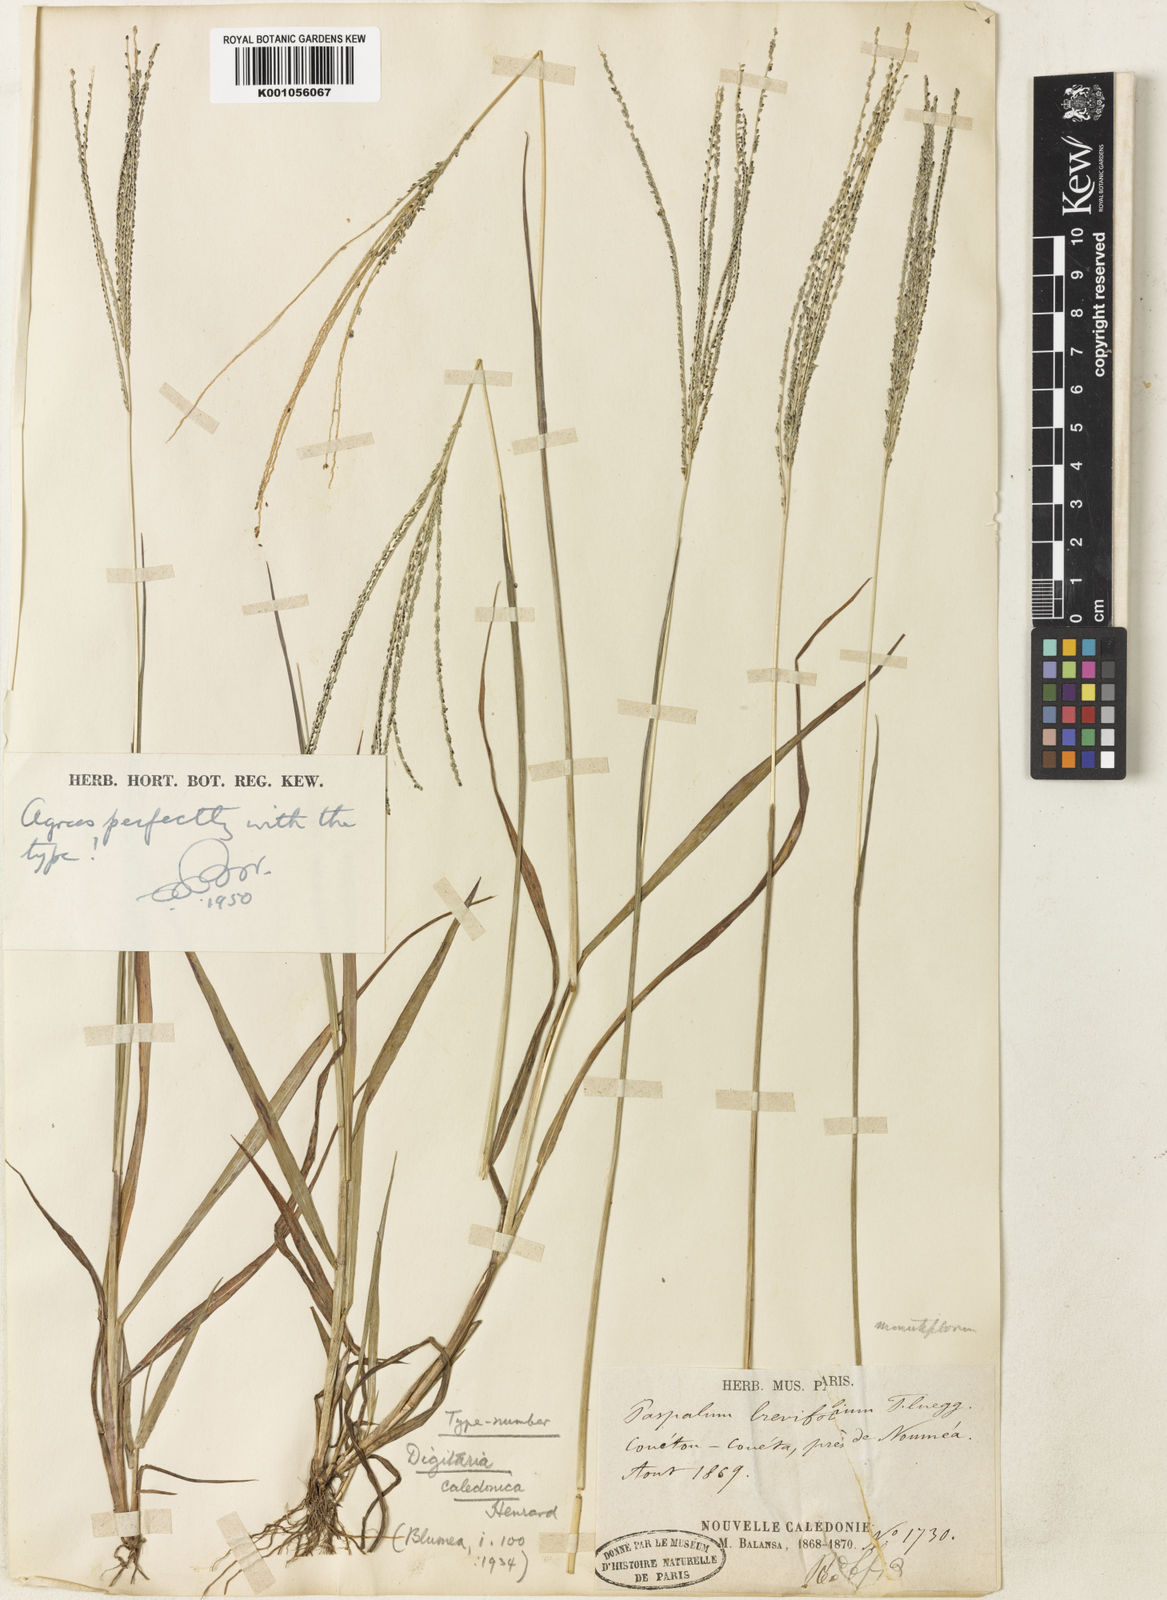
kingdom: Plantae
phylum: Tracheophyta
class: Liliopsida
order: Poales
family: Poaceae
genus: Digitaria
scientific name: Digitaria caledonica
